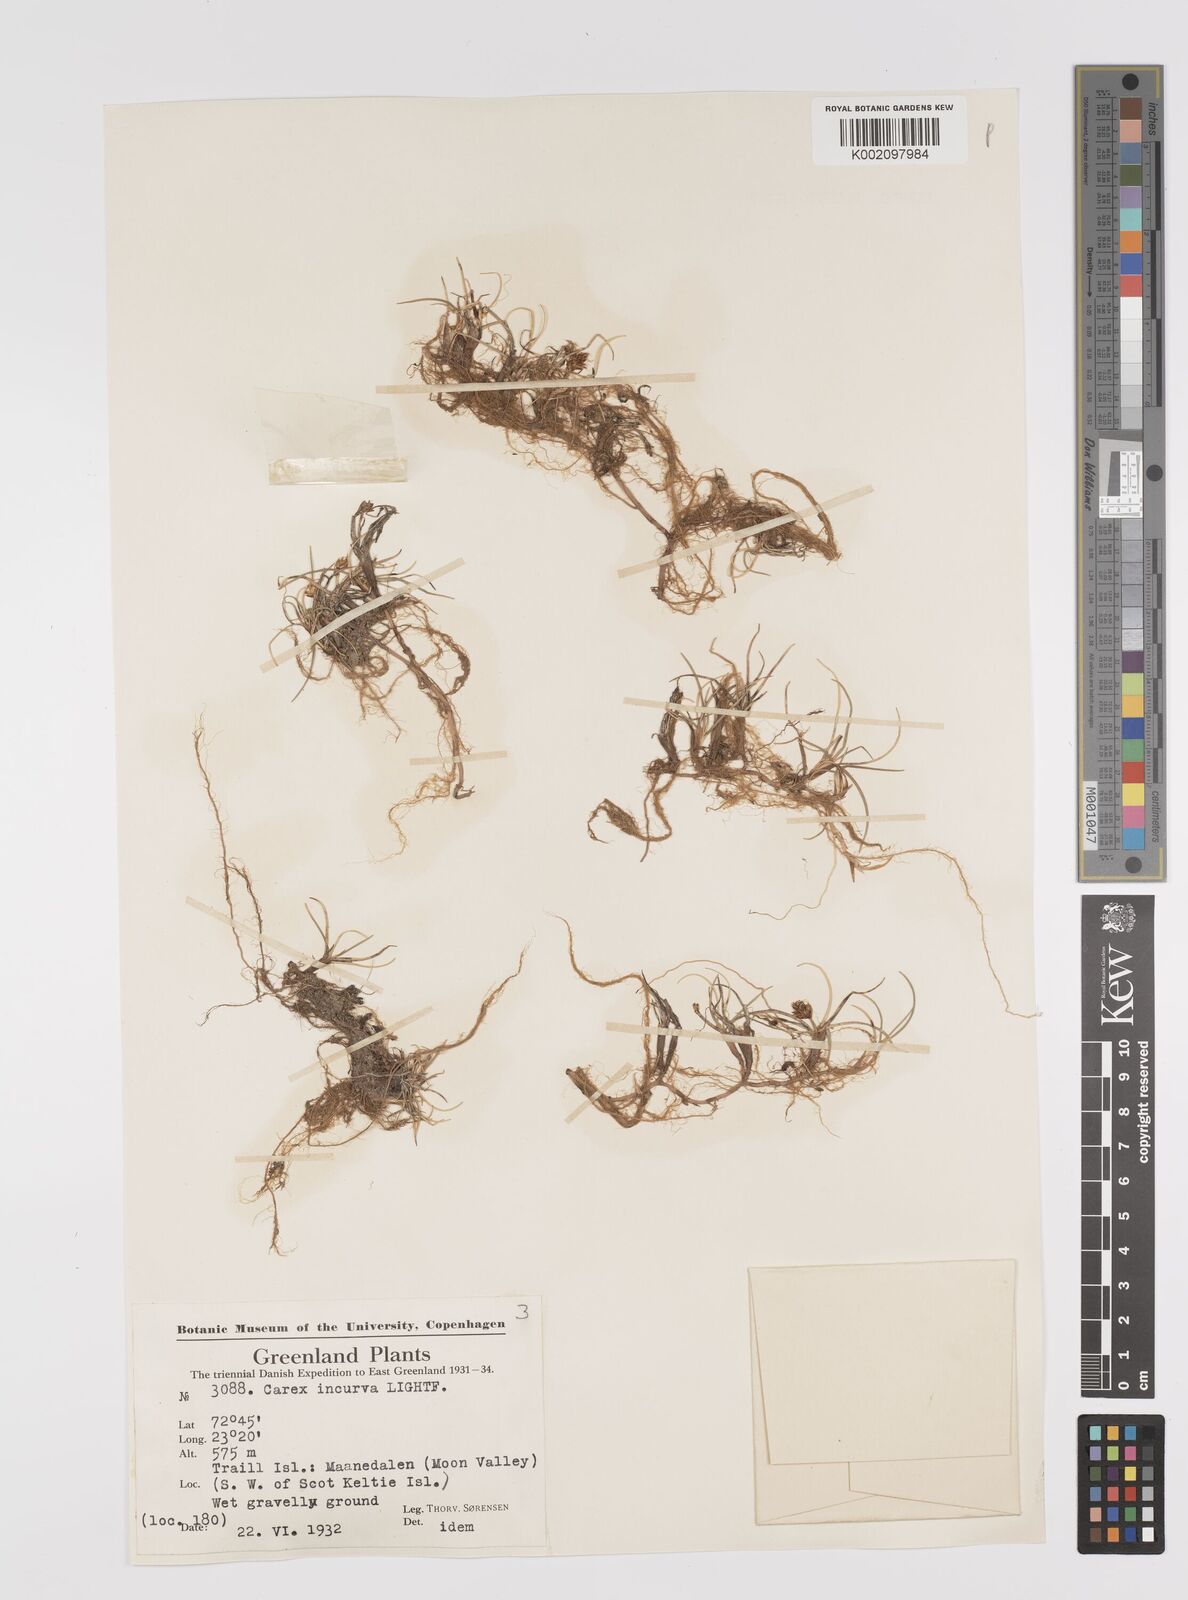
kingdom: Plantae
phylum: Tracheophyta
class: Liliopsida
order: Poales
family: Cyperaceae
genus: Carex
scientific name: Carex maritima
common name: Curved sedge
